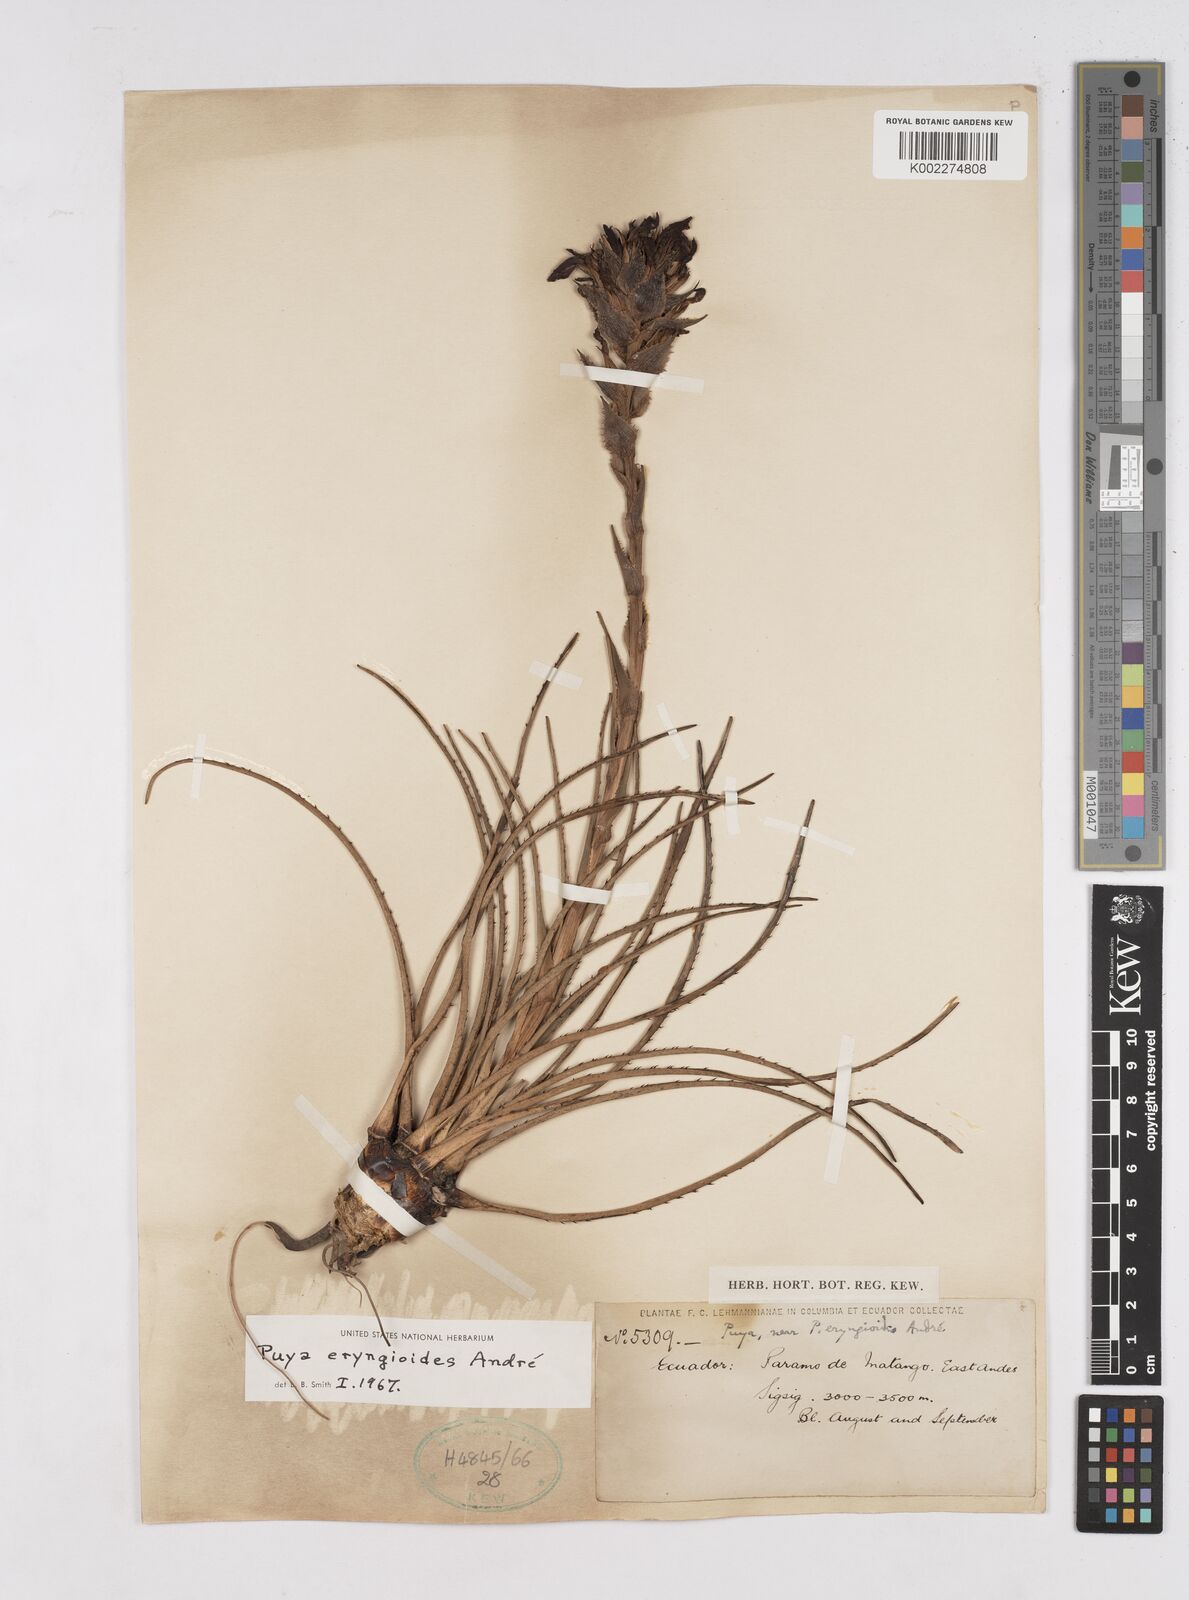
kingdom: Plantae
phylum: Tracheophyta
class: Liliopsida
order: Poales
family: Bromeliaceae
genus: Puya
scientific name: Puya eryngioides
